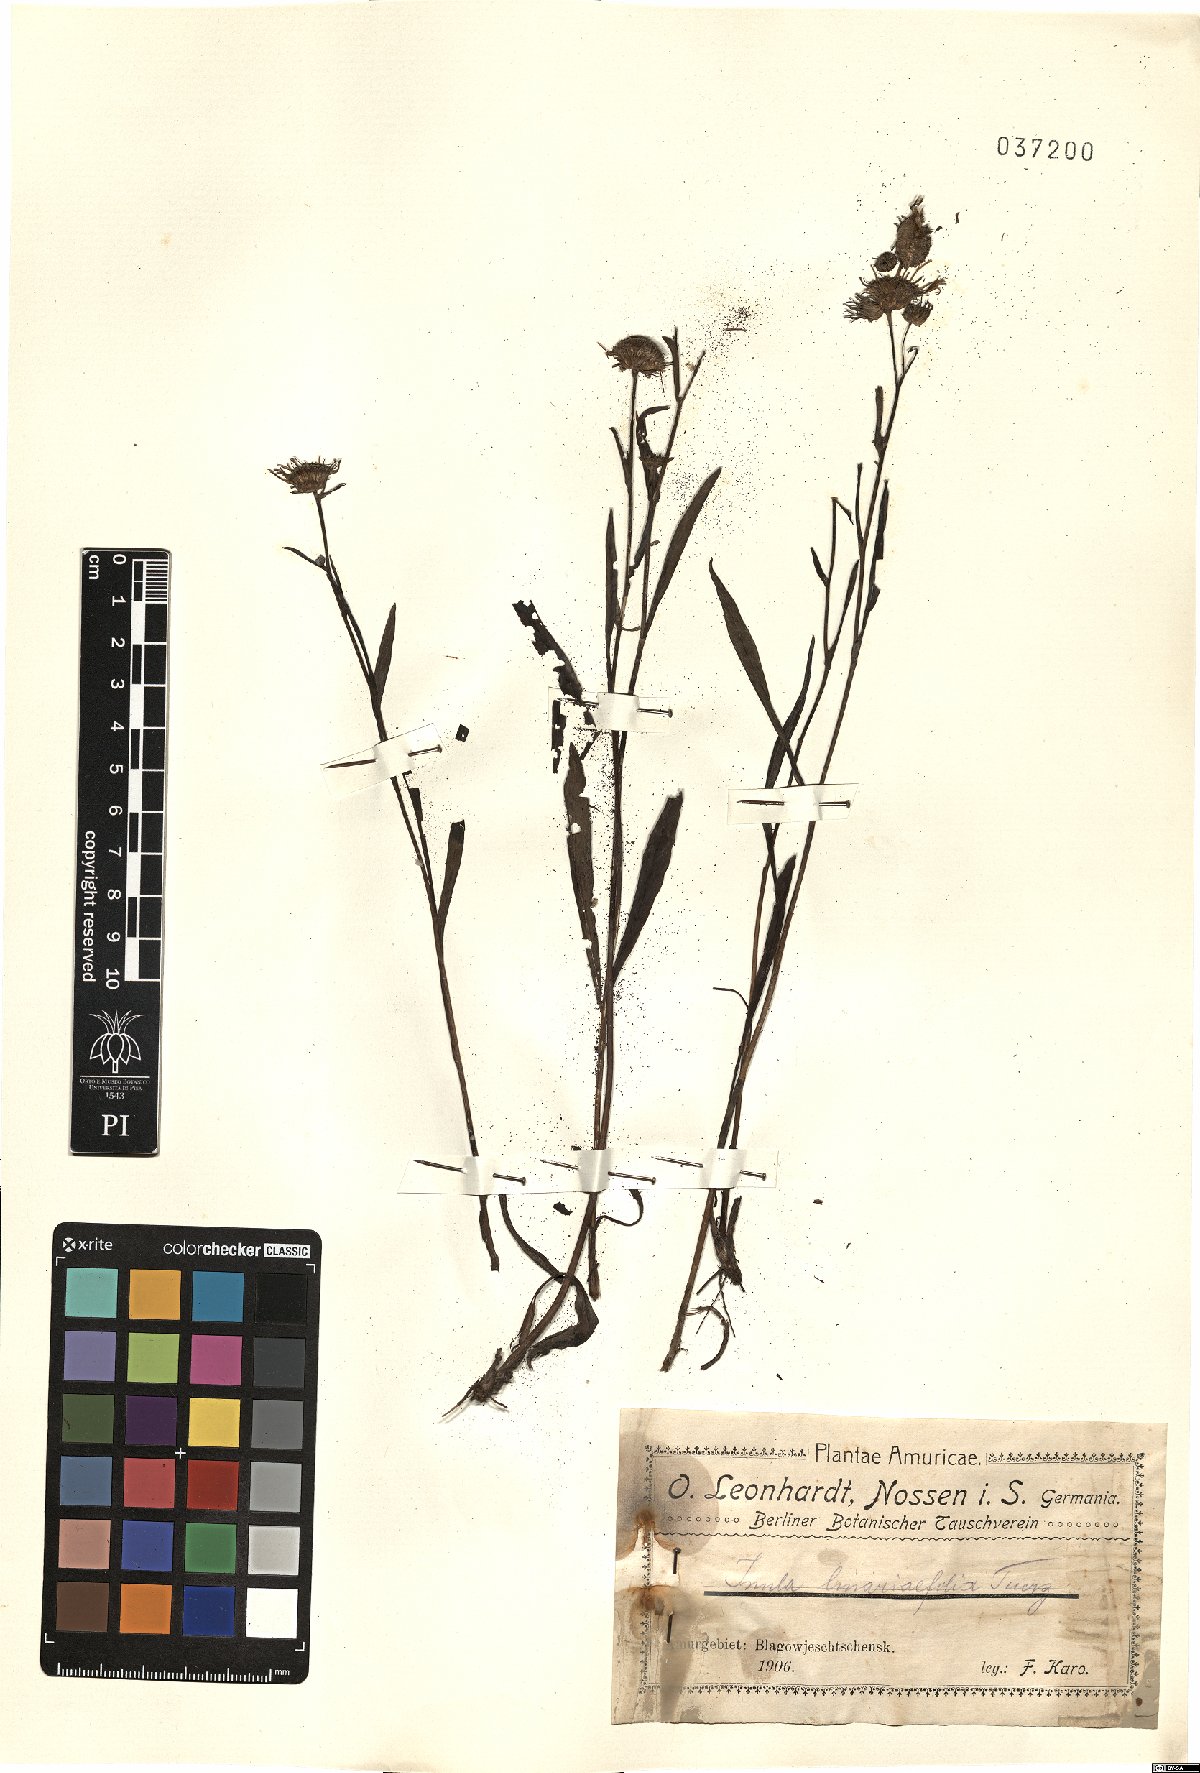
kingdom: Plantae
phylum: Tracheophyta
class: Magnoliopsida
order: Asterales
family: Asteraceae
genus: Inula
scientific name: Inula linariifolia
